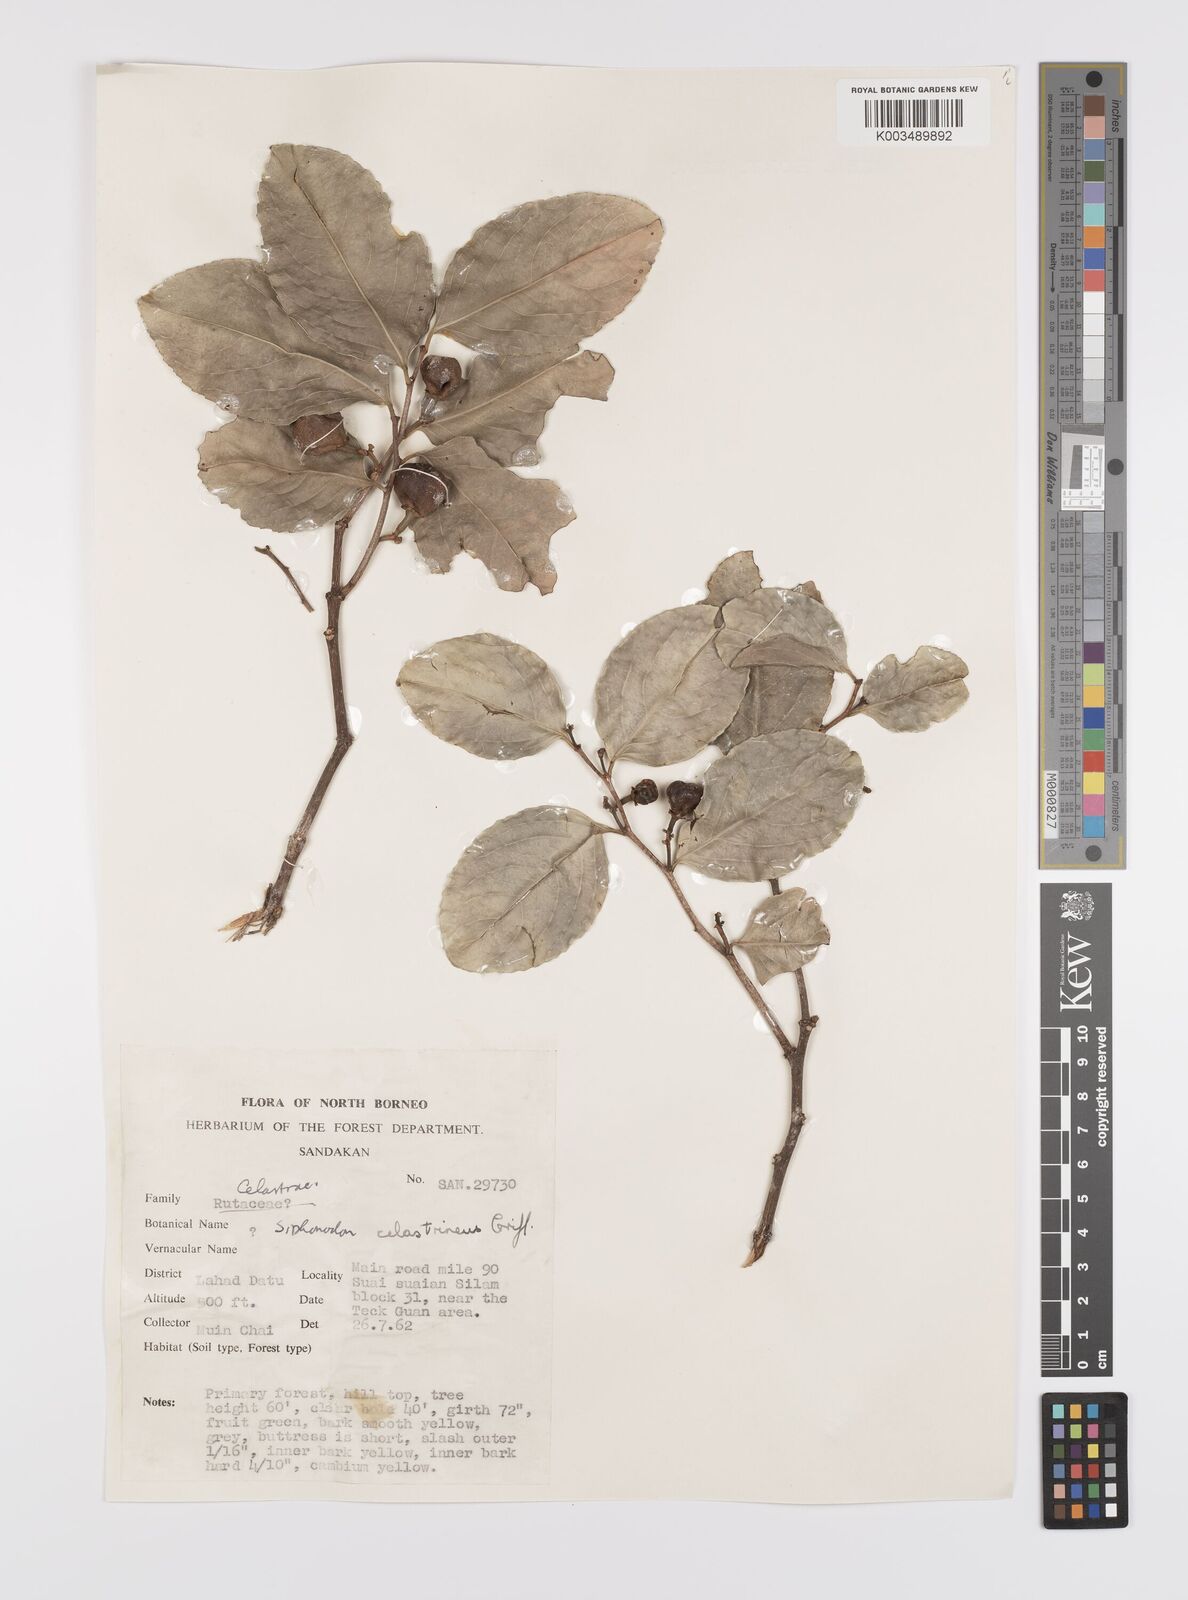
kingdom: Plantae
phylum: Tracheophyta
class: Magnoliopsida
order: Celastrales
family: Celastraceae
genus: Siphonodon
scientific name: Siphonodon celastrineus
